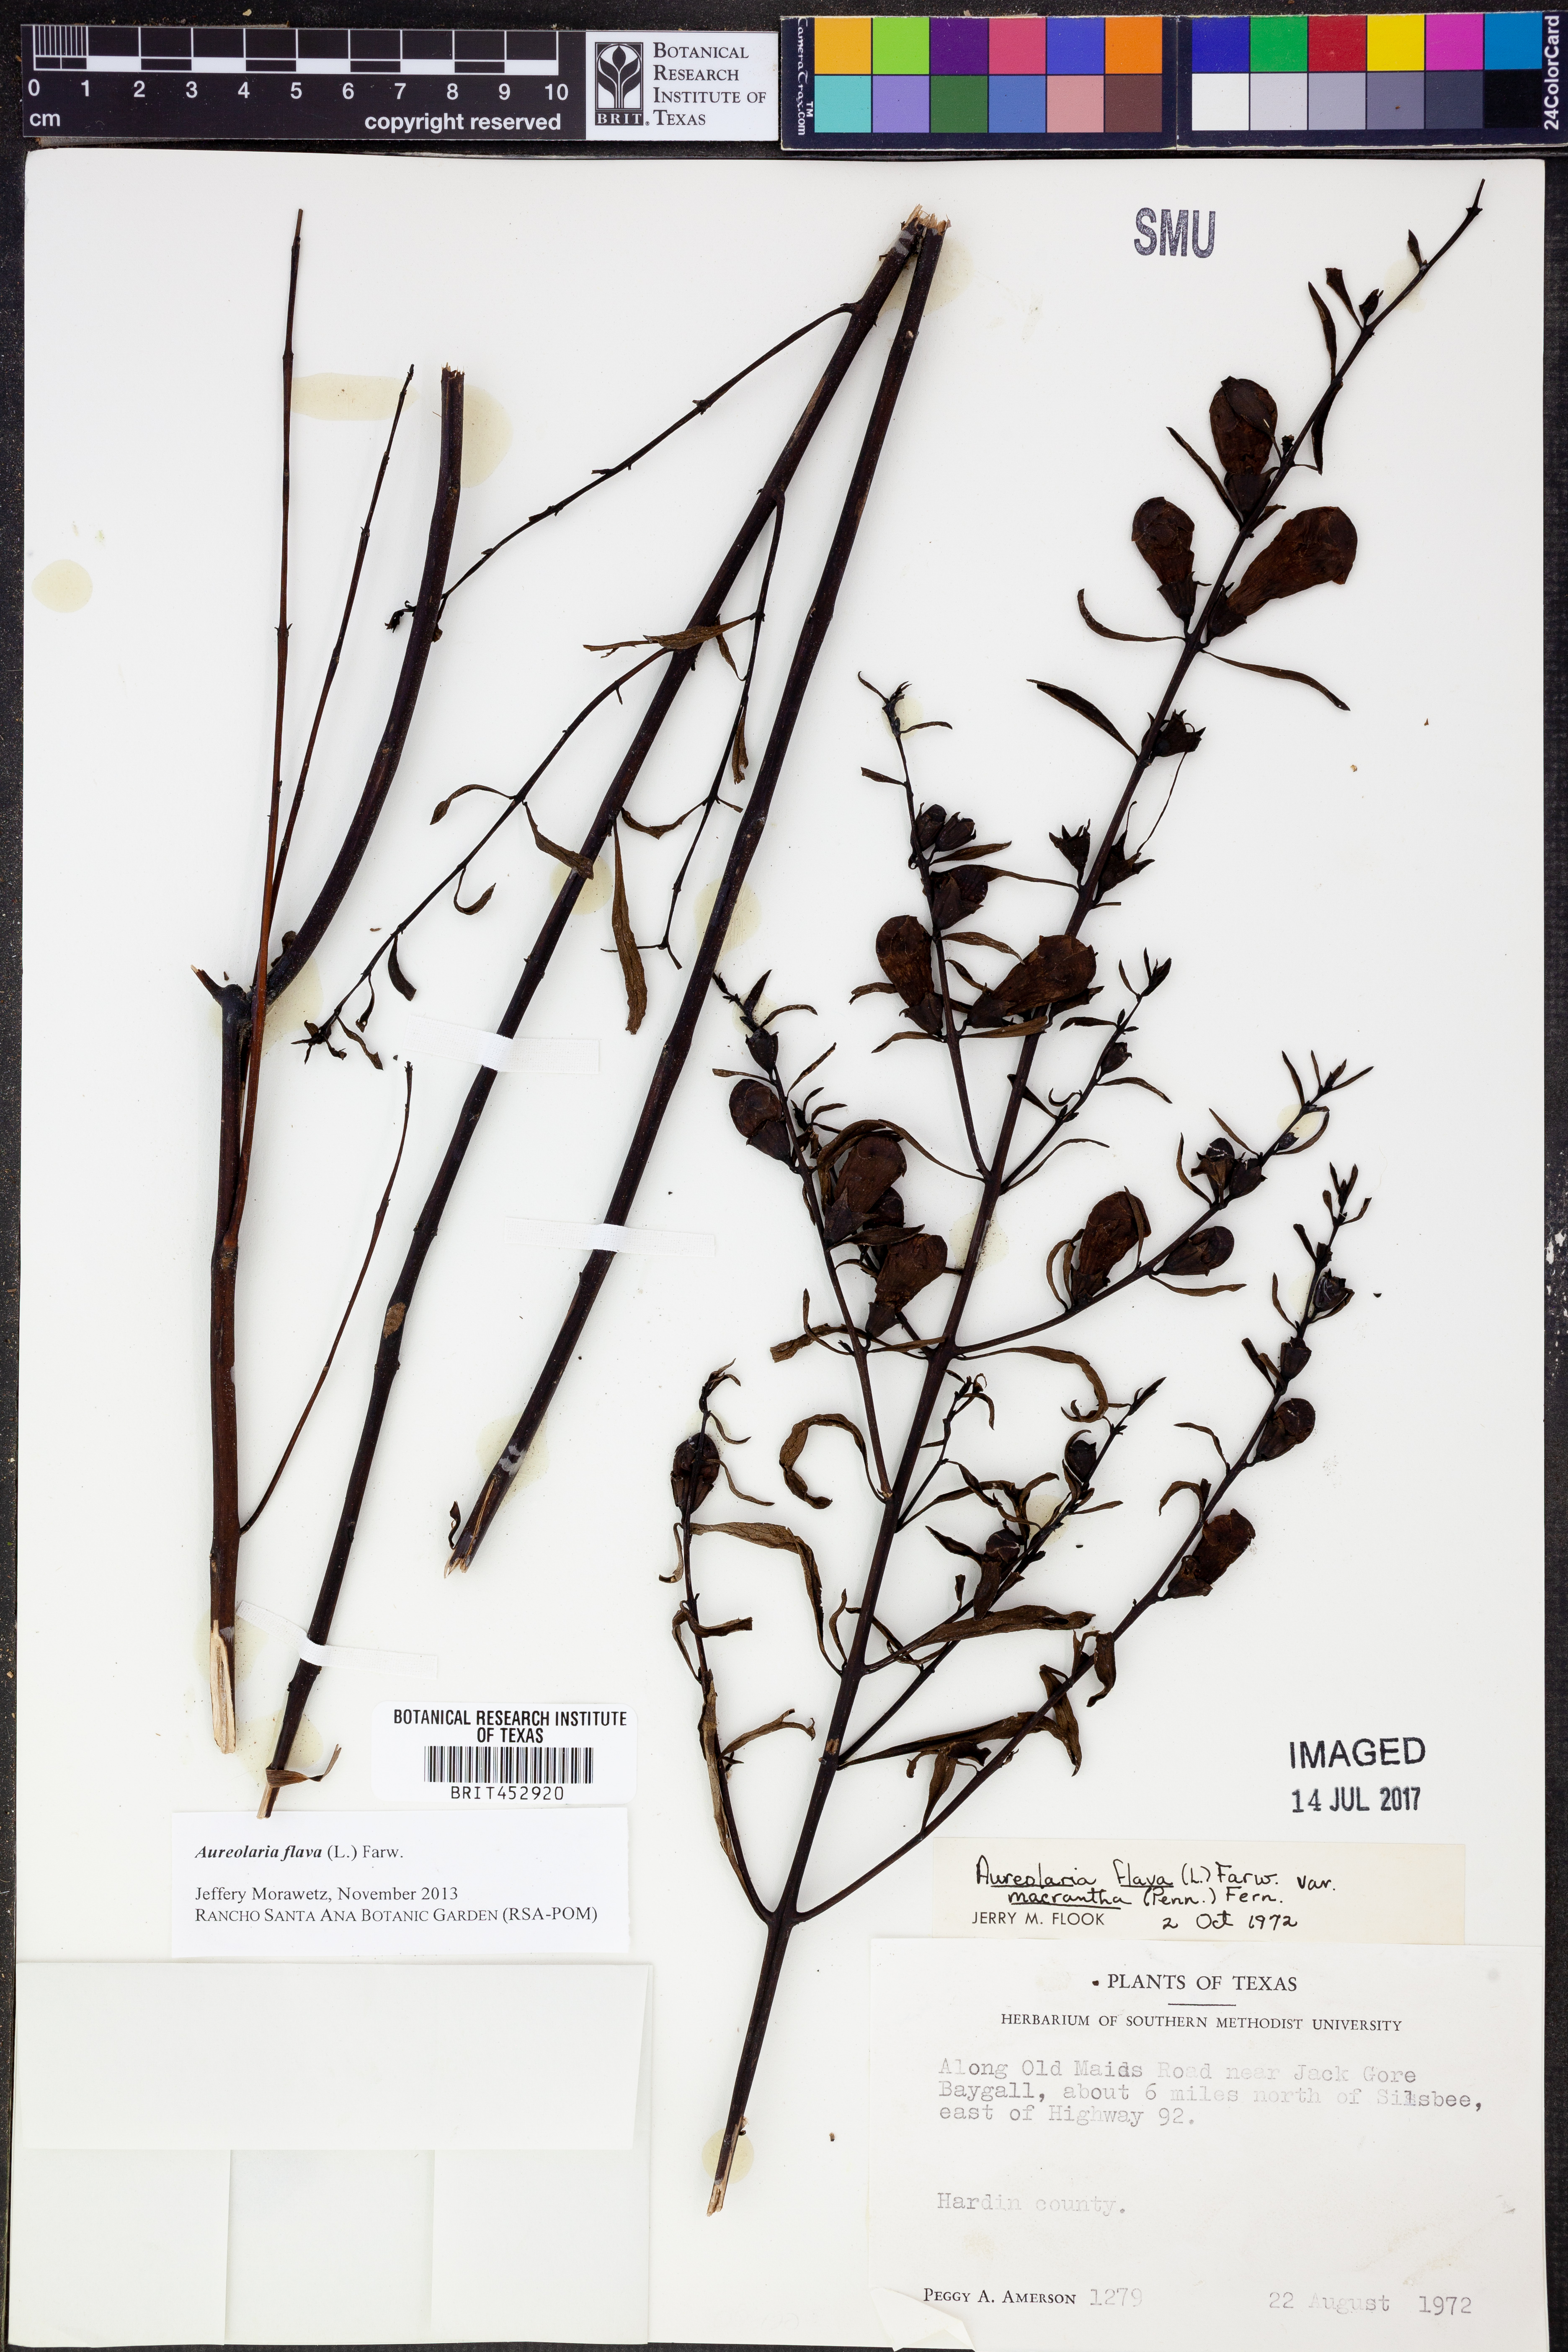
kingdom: Plantae
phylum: Tracheophyta
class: Magnoliopsida
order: Lamiales
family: Orobanchaceae
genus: Aureolaria
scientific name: Aureolaria flava
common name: Smooth false foxglove
